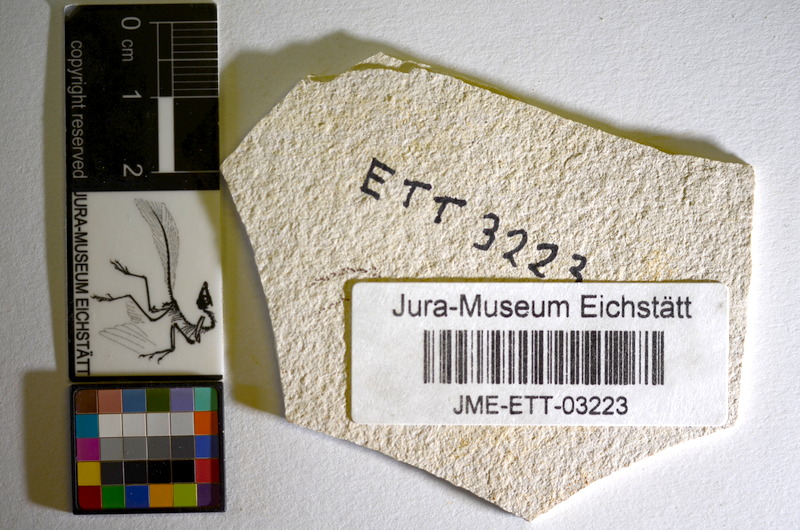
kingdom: Animalia
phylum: Chordata
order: Salmoniformes
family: Orthogonikleithridae
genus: Orthogonikleithrus
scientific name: Orthogonikleithrus hoelli
